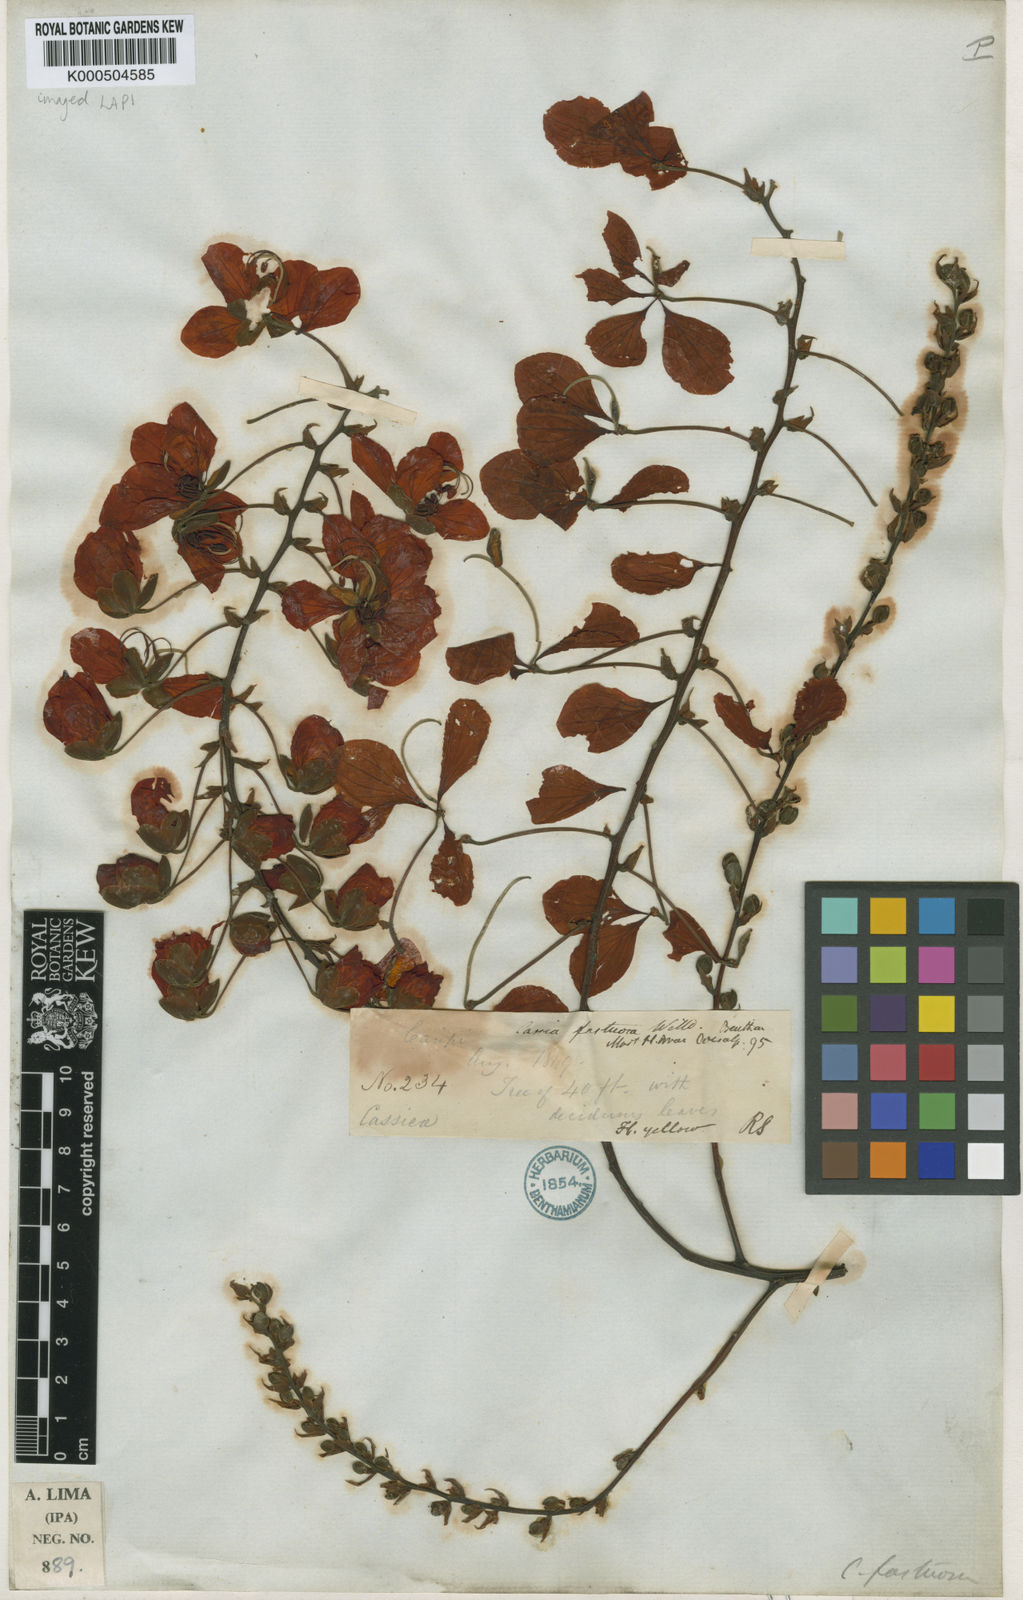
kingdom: Plantae
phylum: Tracheophyta
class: Magnoliopsida
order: Fabales
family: Fabaceae
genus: Cassia
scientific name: Cassia fastuosa
